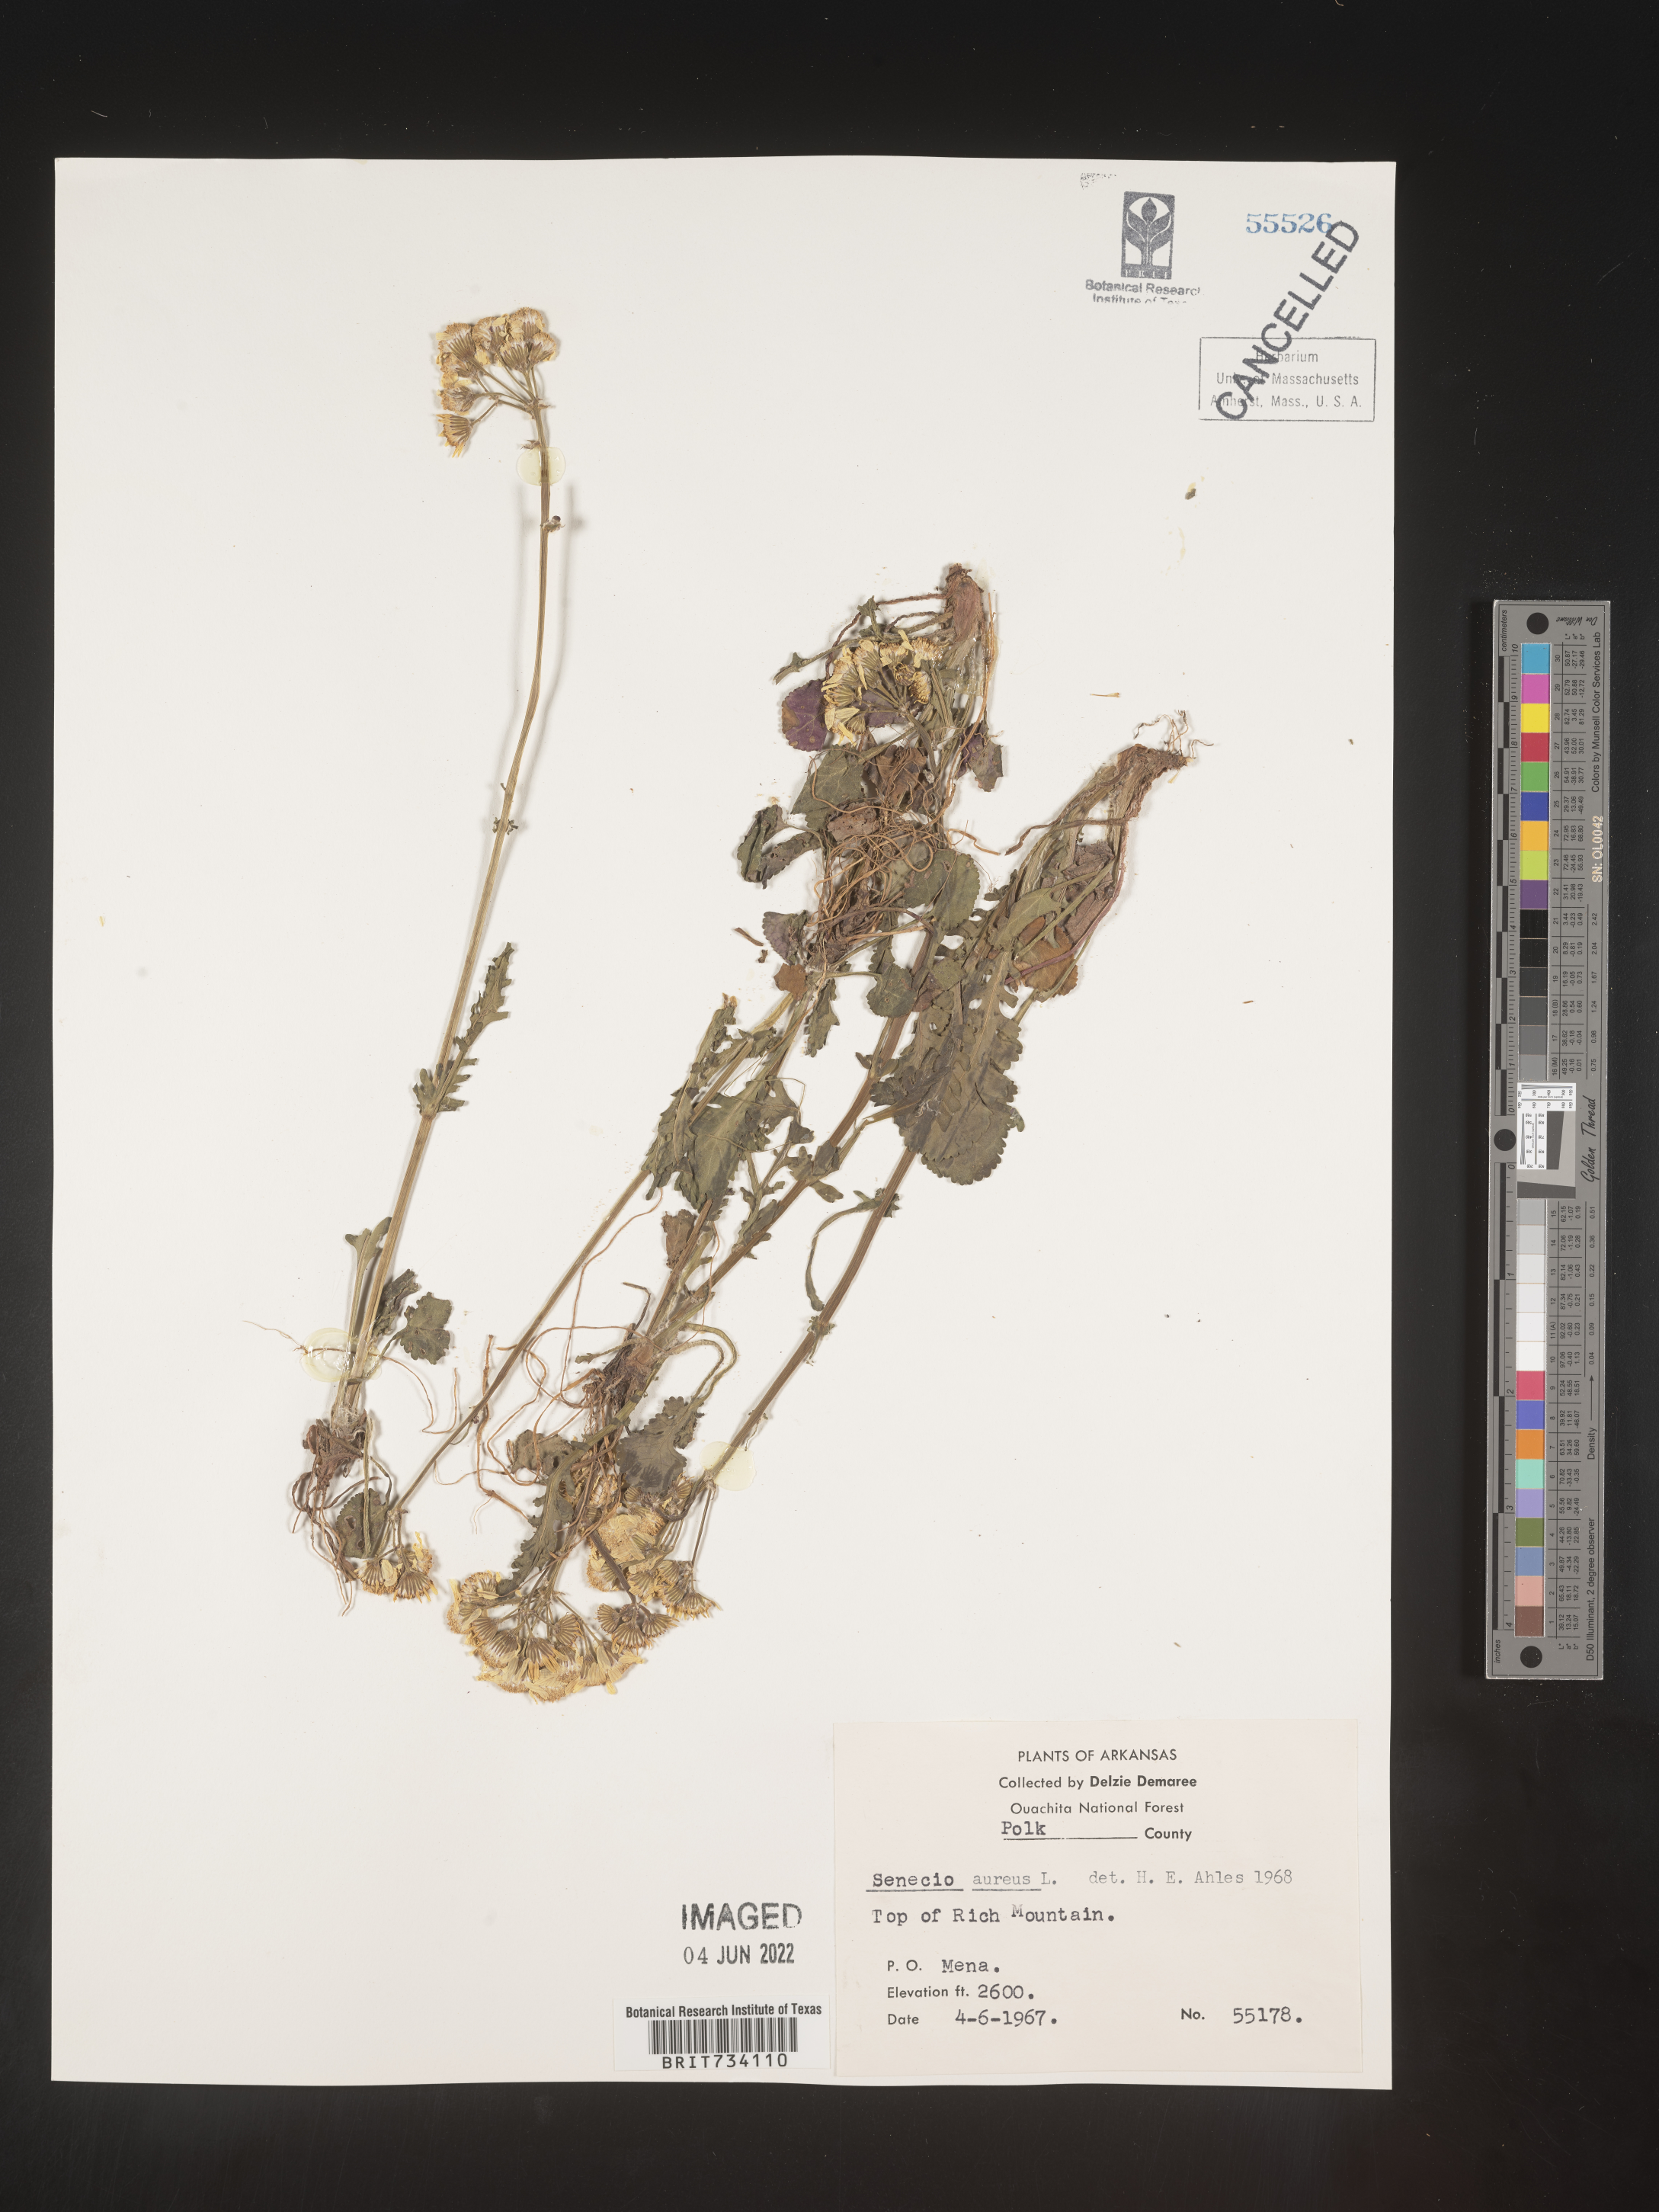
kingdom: Plantae
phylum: Tracheophyta
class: Magnoliopsida
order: Asterales
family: Asteraceae
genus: Packera
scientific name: Packera aurea
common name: Golden groundsel
